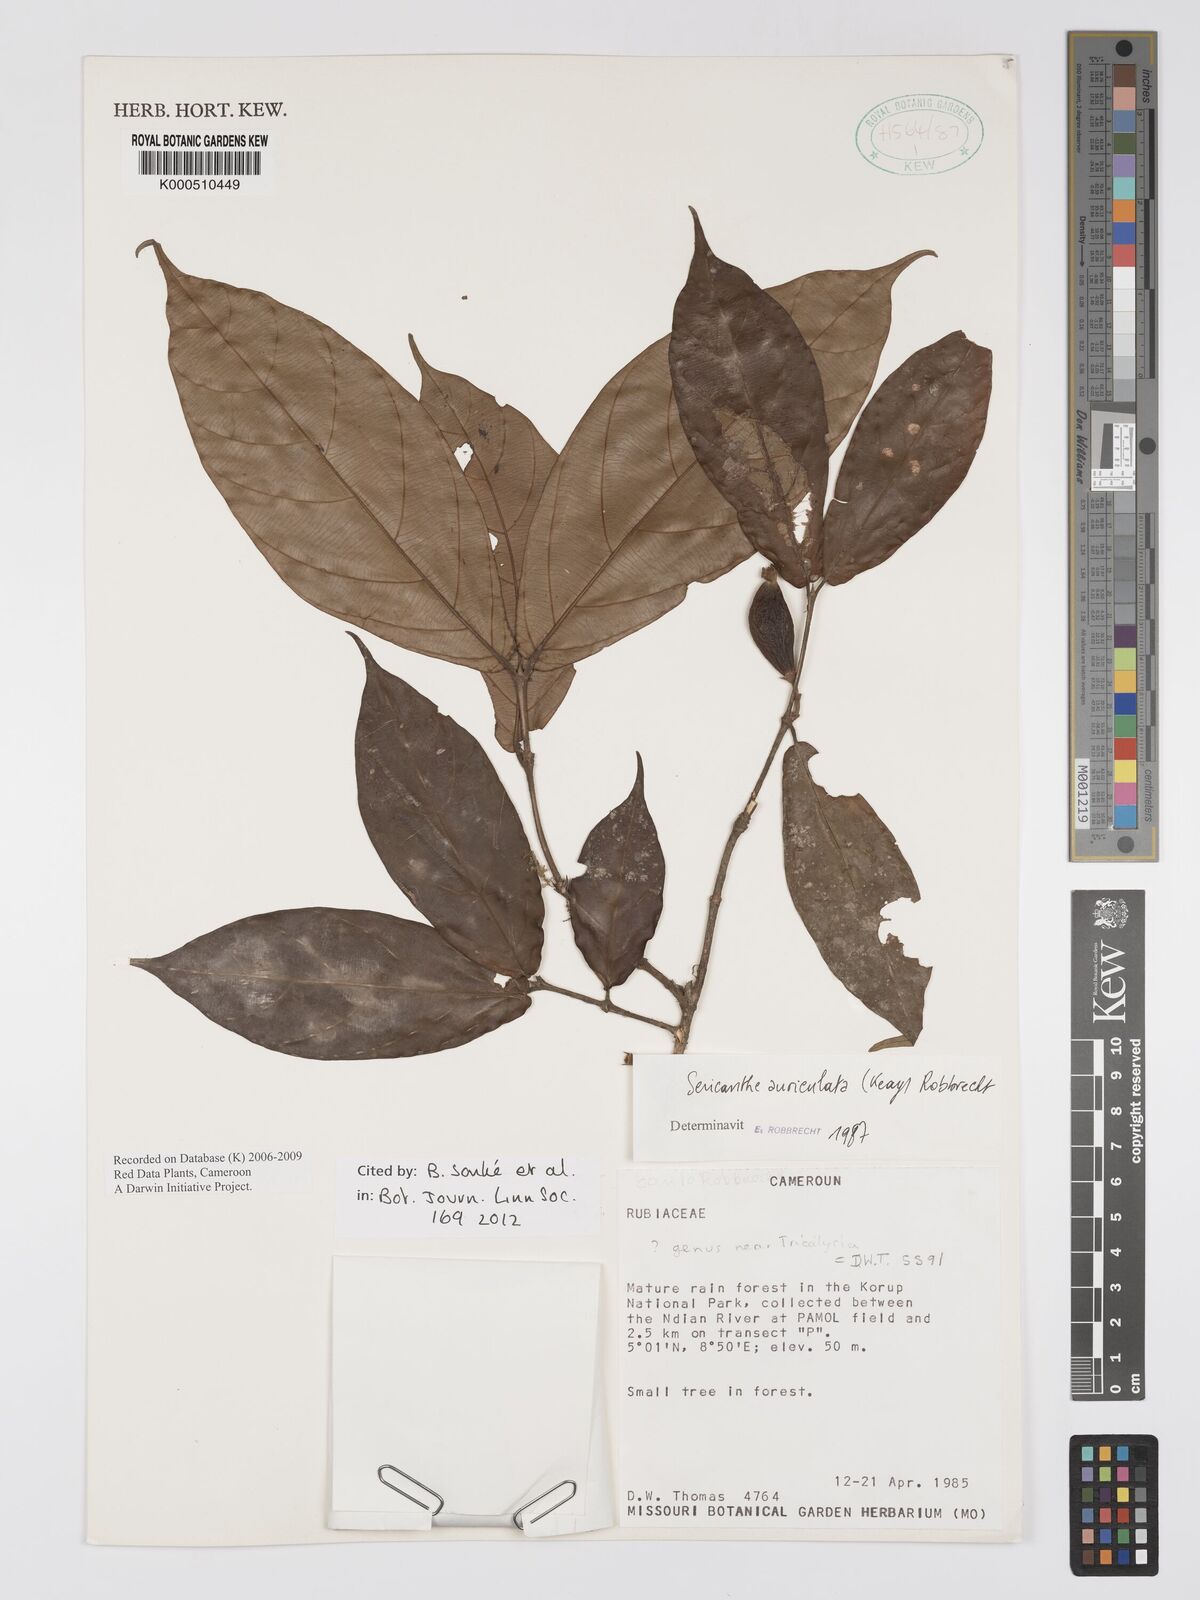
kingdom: Plantae
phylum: Tracheophyta
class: Magnoliopsida
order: Gentianales
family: Rubiaceae
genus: Sericanthe
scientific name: Sericanthe auriculata
